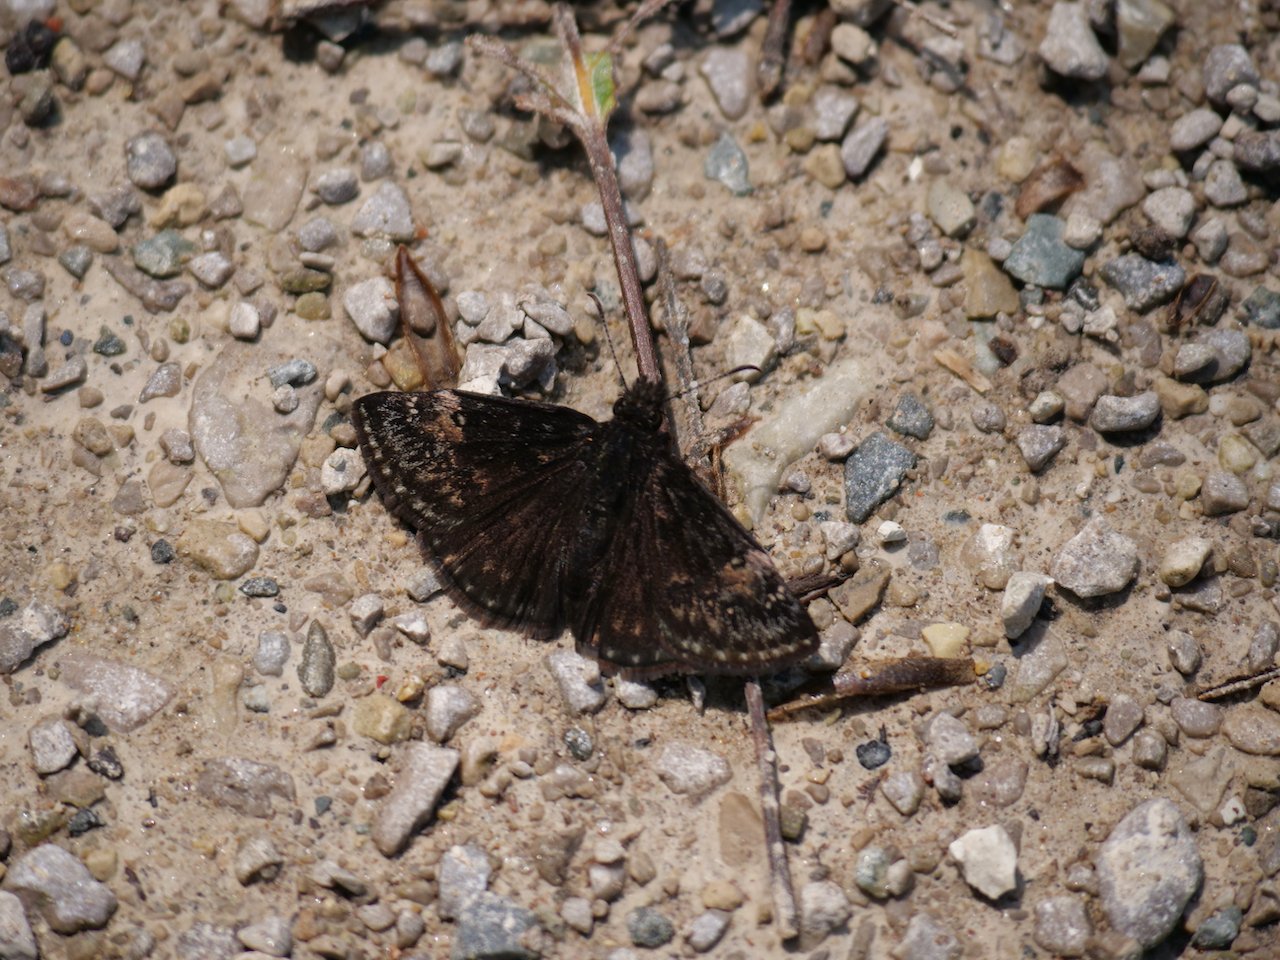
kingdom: Animalia
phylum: Arthropoda
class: Insecta
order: Lepidoptera
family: Hesperiidae
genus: Gesta
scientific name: Gesta
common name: Wild Indigo Duskywing
